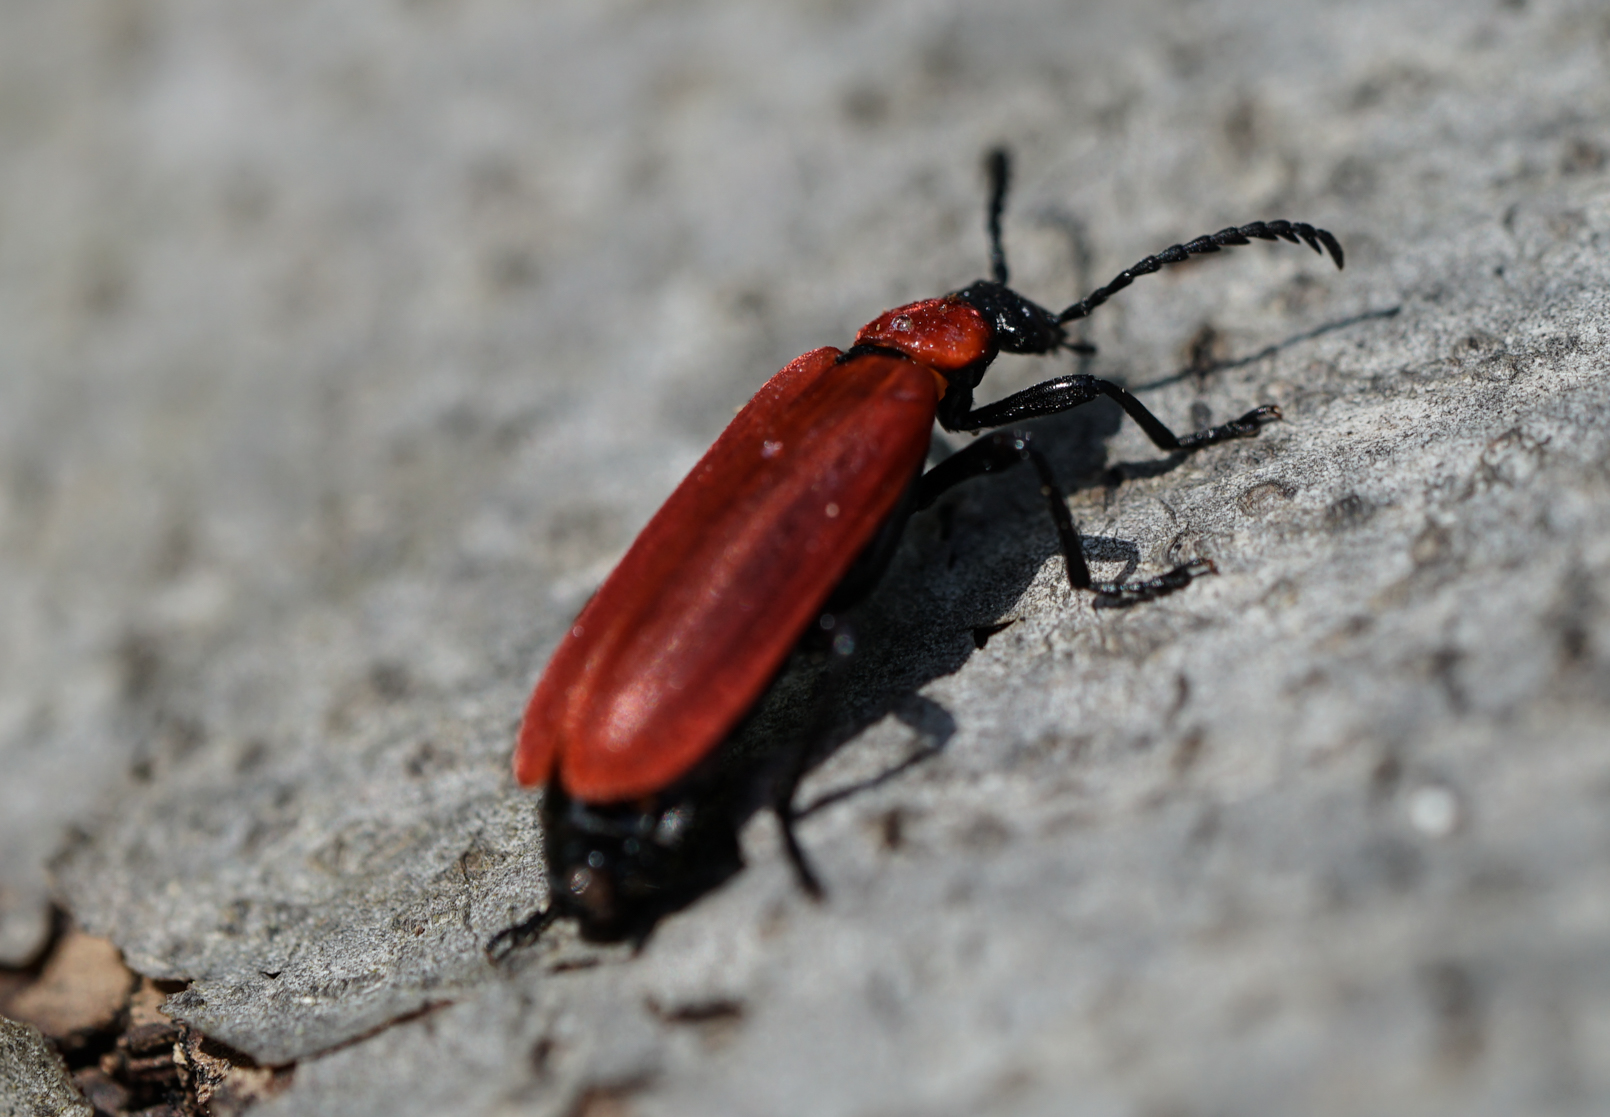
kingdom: Animalia
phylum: Arthropoda
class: Insecta
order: Coleoptera
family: Pyrochroidae
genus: Pyrochroa
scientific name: Pyrochroa coccinea
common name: Black-headed cardinal beetle
